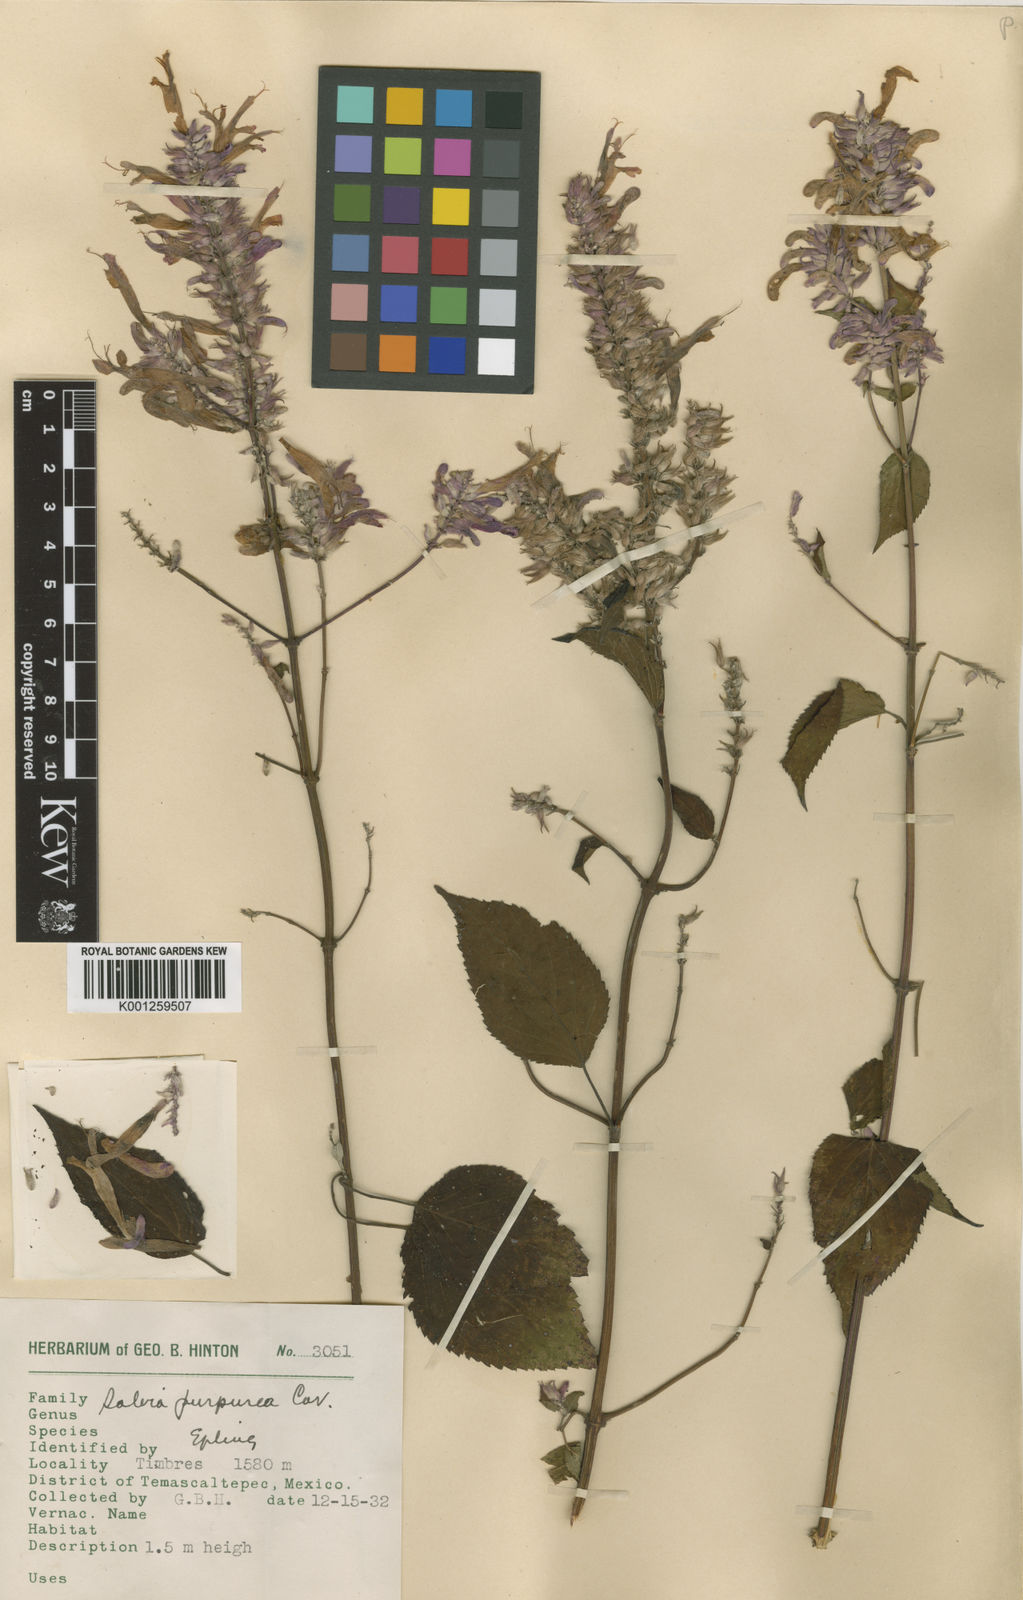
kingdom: Plantae
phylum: Tracheophyta
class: Magnoliopsida
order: Lamiales
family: Lamiaceae
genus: Salvia
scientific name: Salvia purpurea
